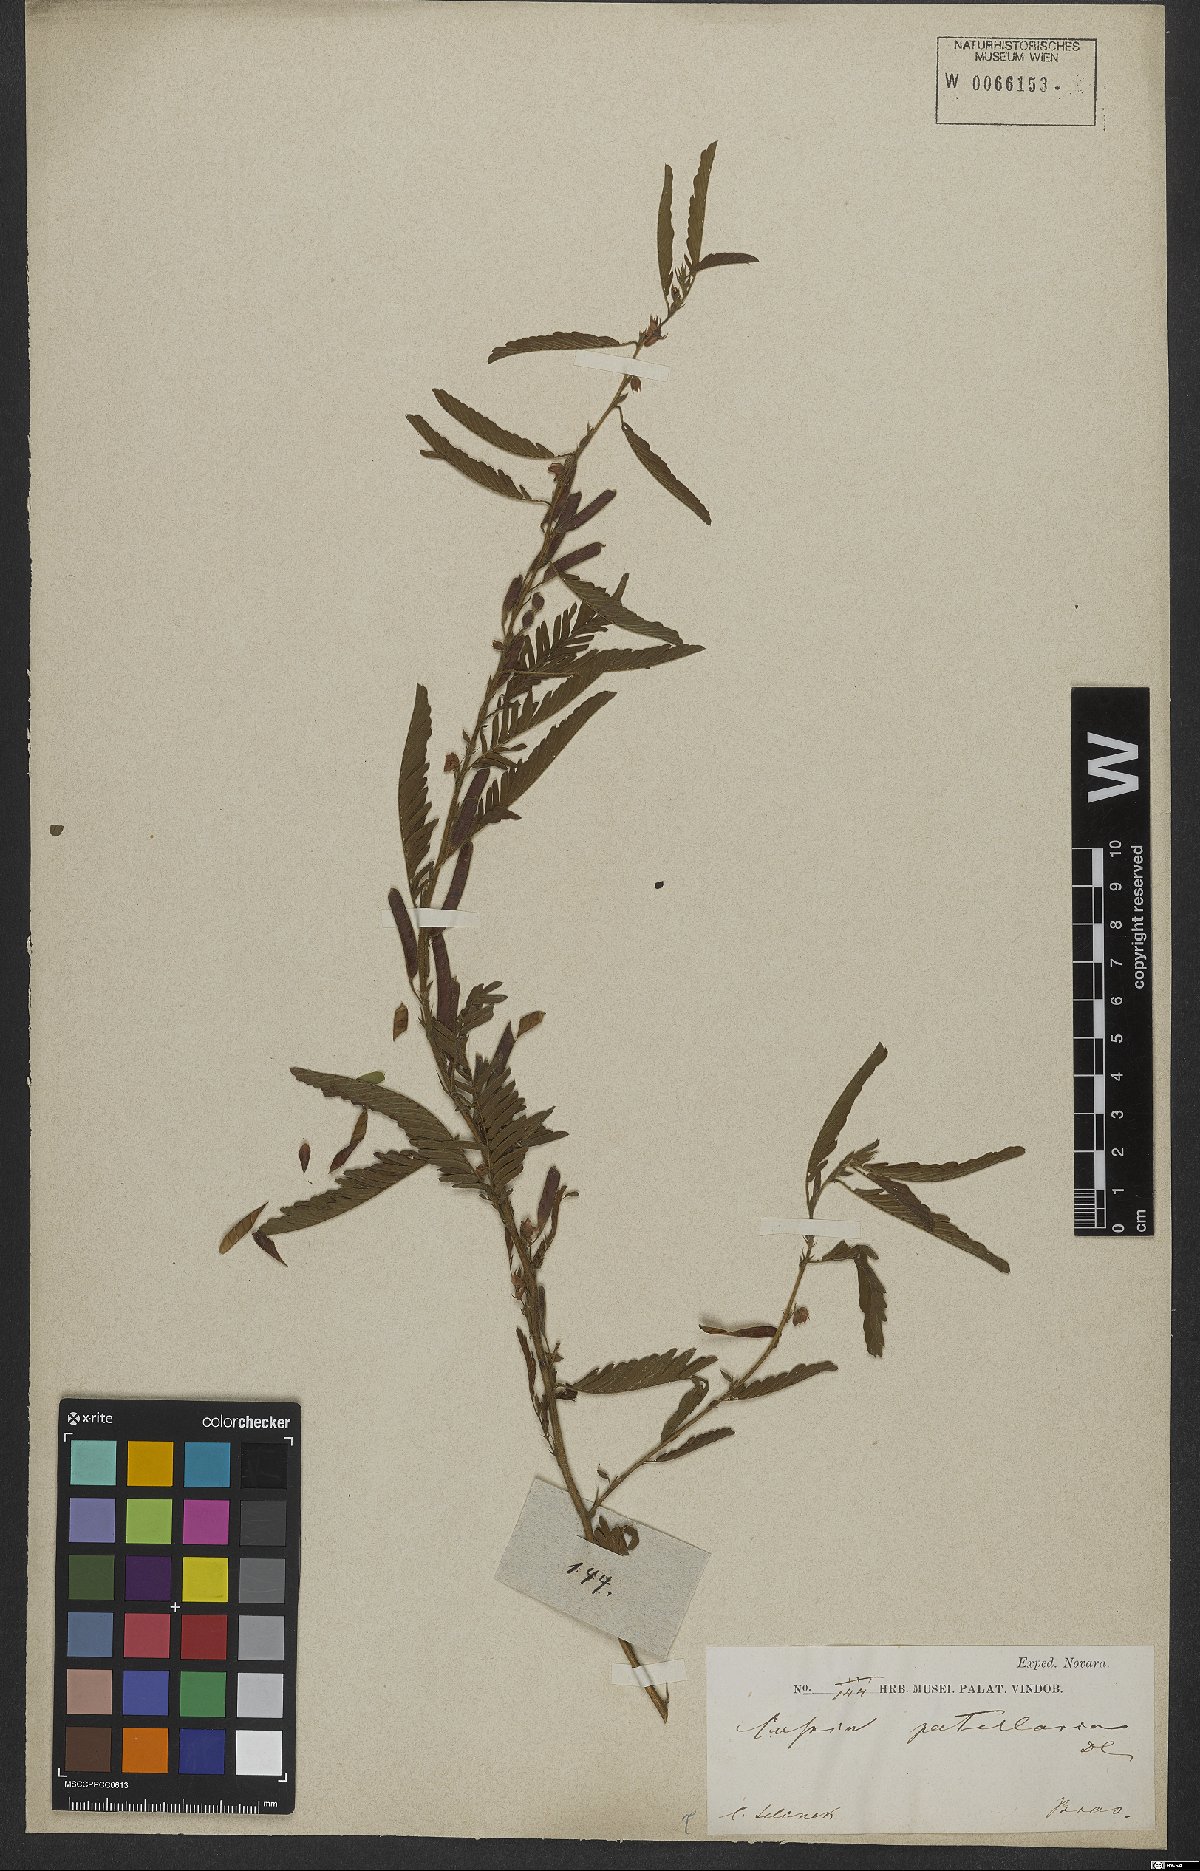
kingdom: Plantae
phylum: Tracheophyta
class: Magnoliopsida
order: Fabales
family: Fabaceae
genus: Chamaecrista
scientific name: Chamaecrista nictitans
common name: Sensitive cassia
